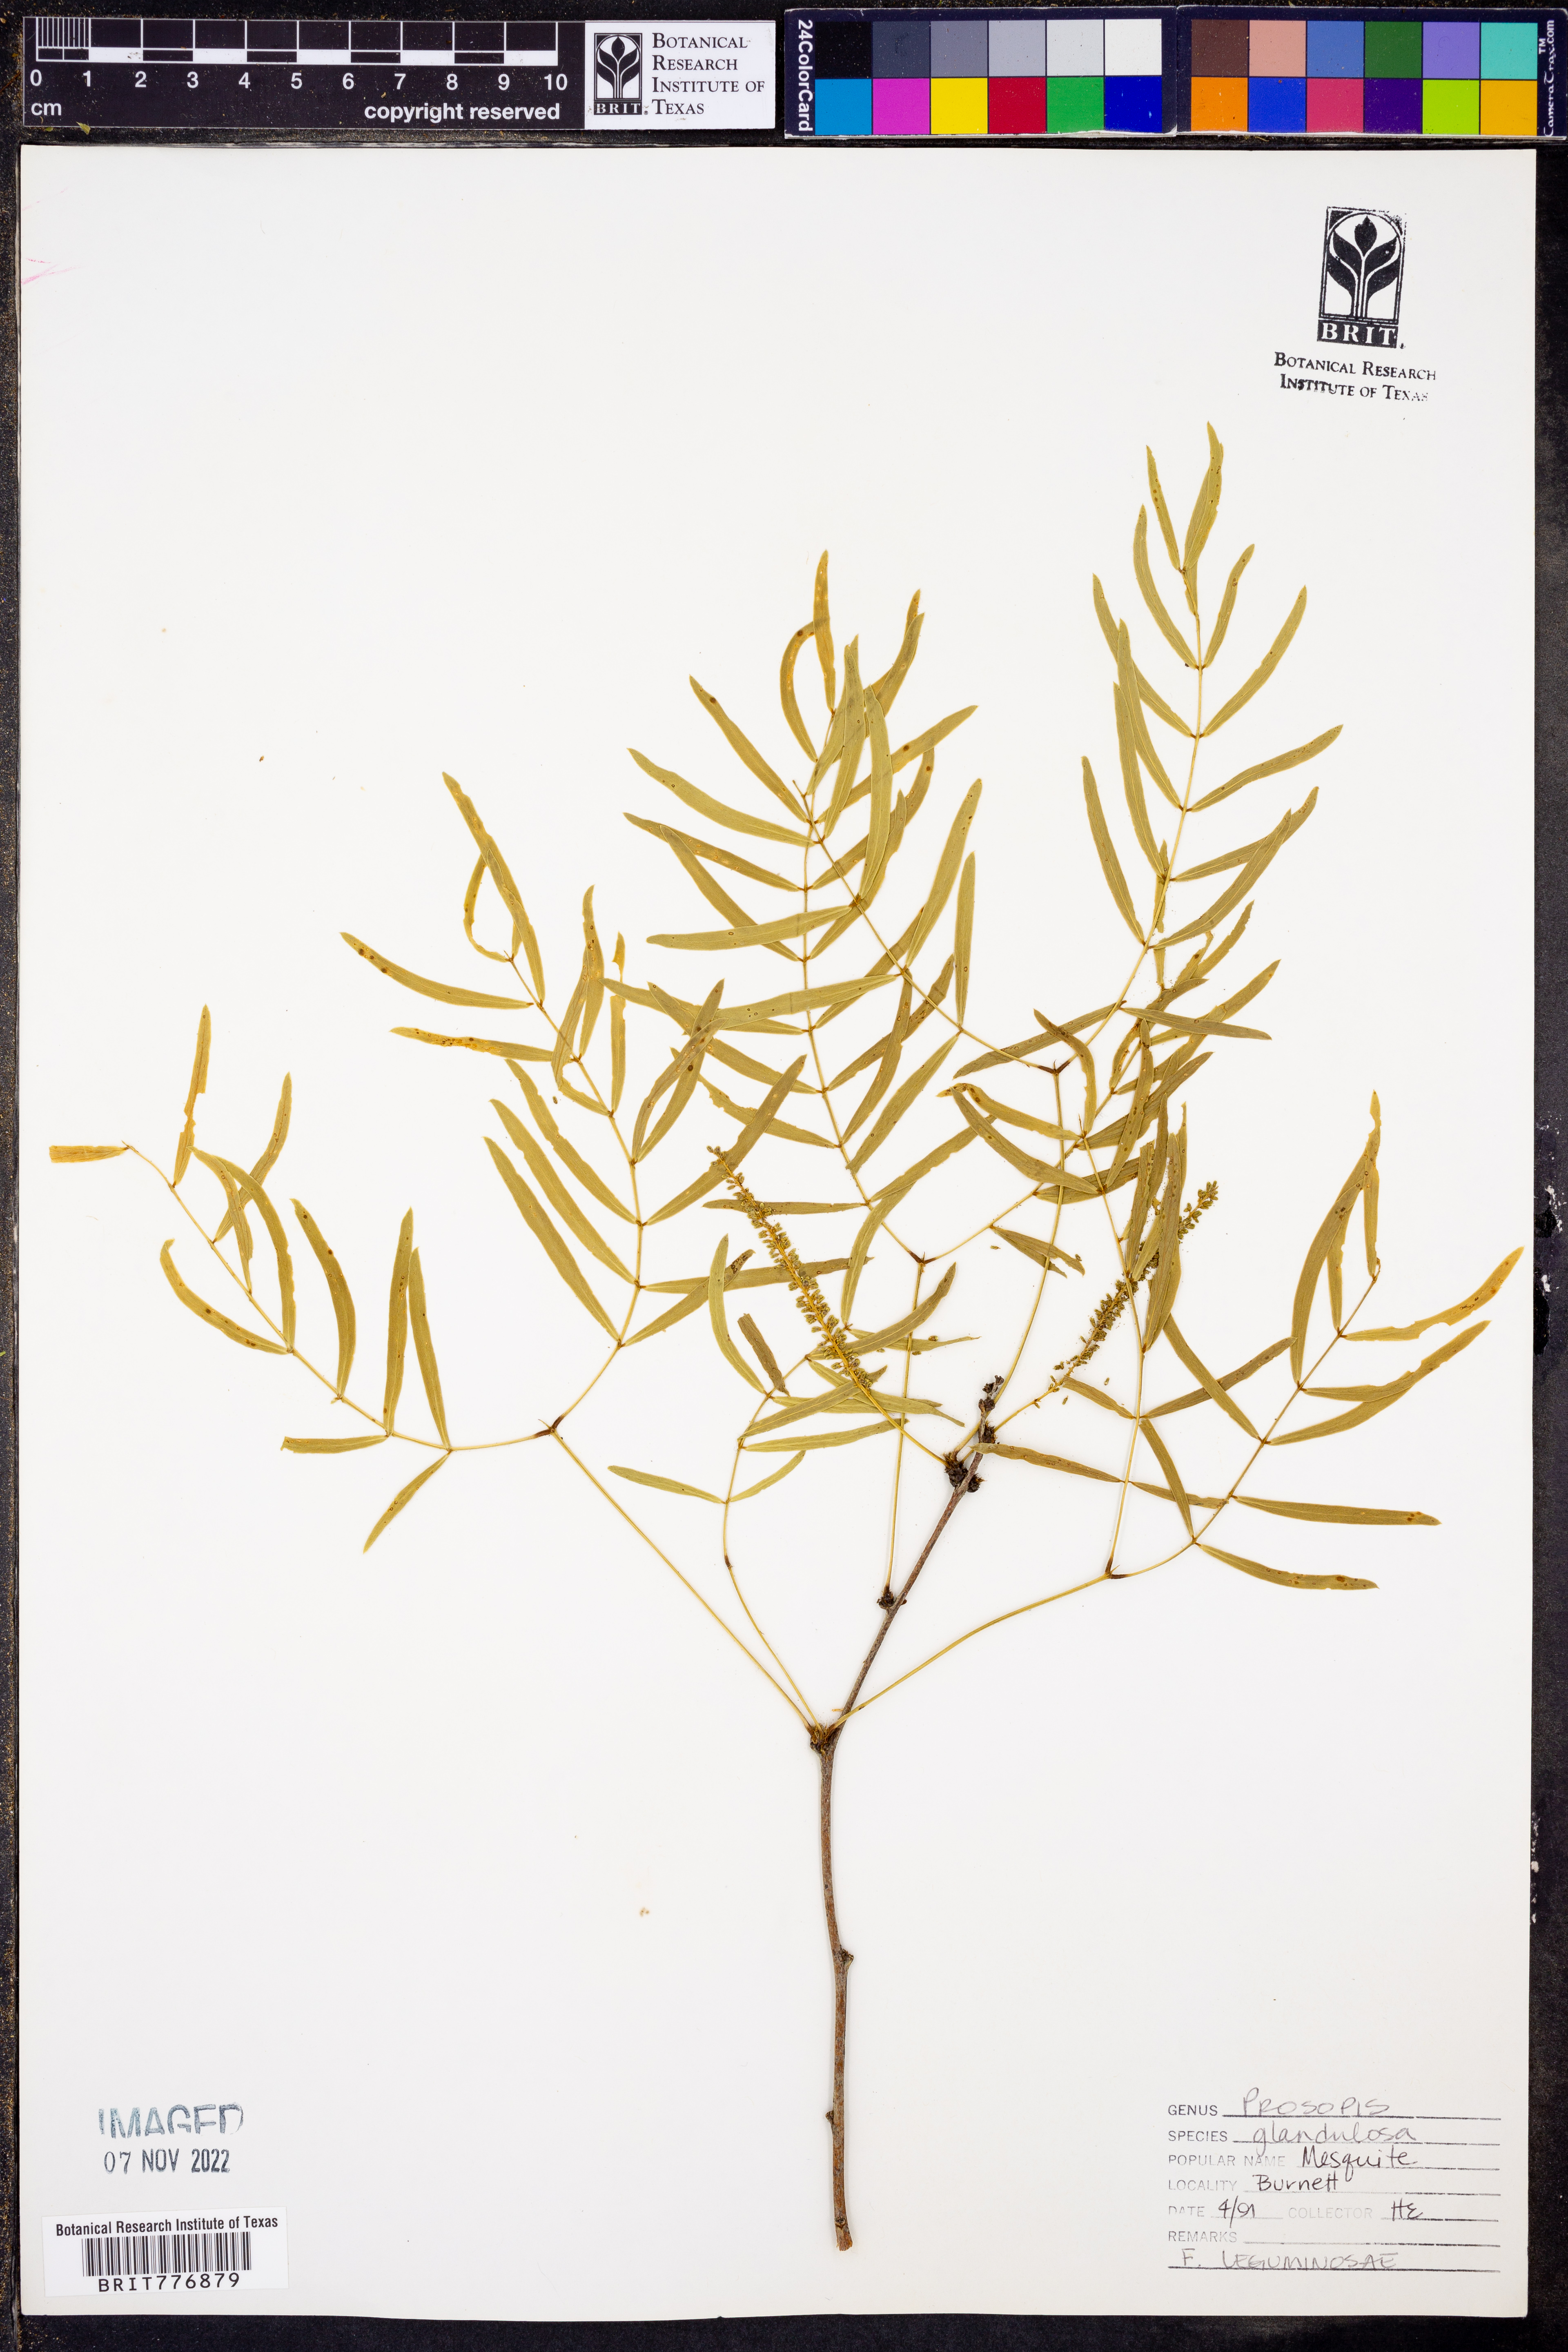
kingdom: Plantae
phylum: Tracheophyta
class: Magnoliopsida
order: Fabales
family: Fabaceae
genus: Prosopis
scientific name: Prosopis glandulosa
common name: Honey mesquite
